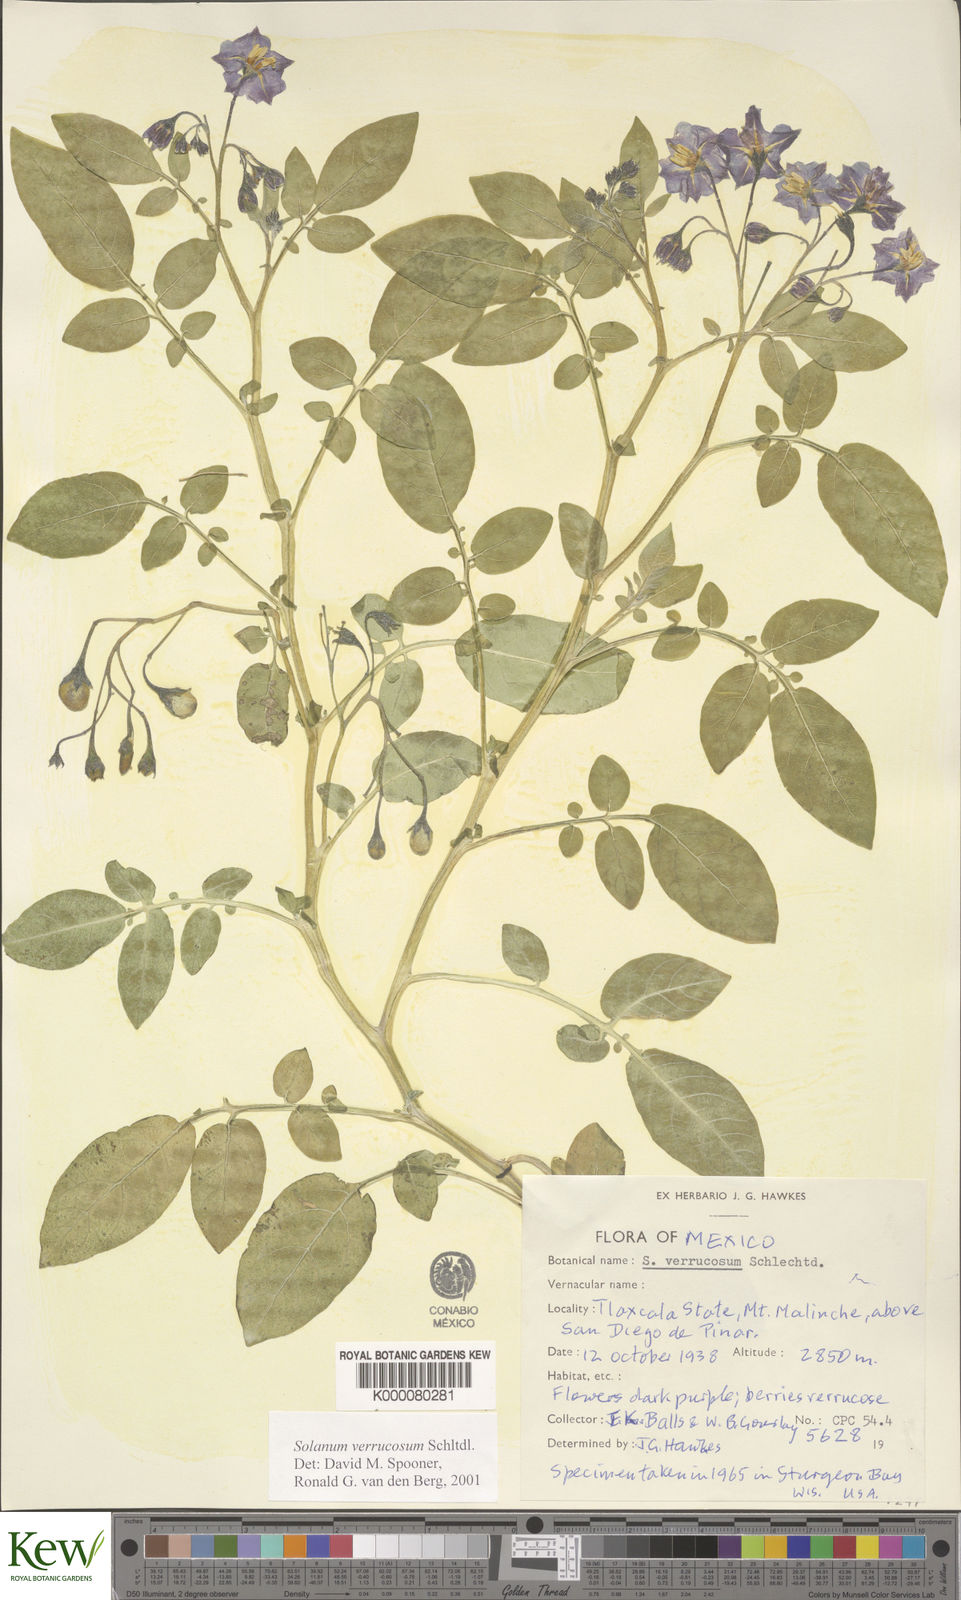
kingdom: Plantae
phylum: Tracheophyta
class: Magnoliopsida
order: Solanales
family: Solanaceae
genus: Solanum
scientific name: Solanum verrucosum
